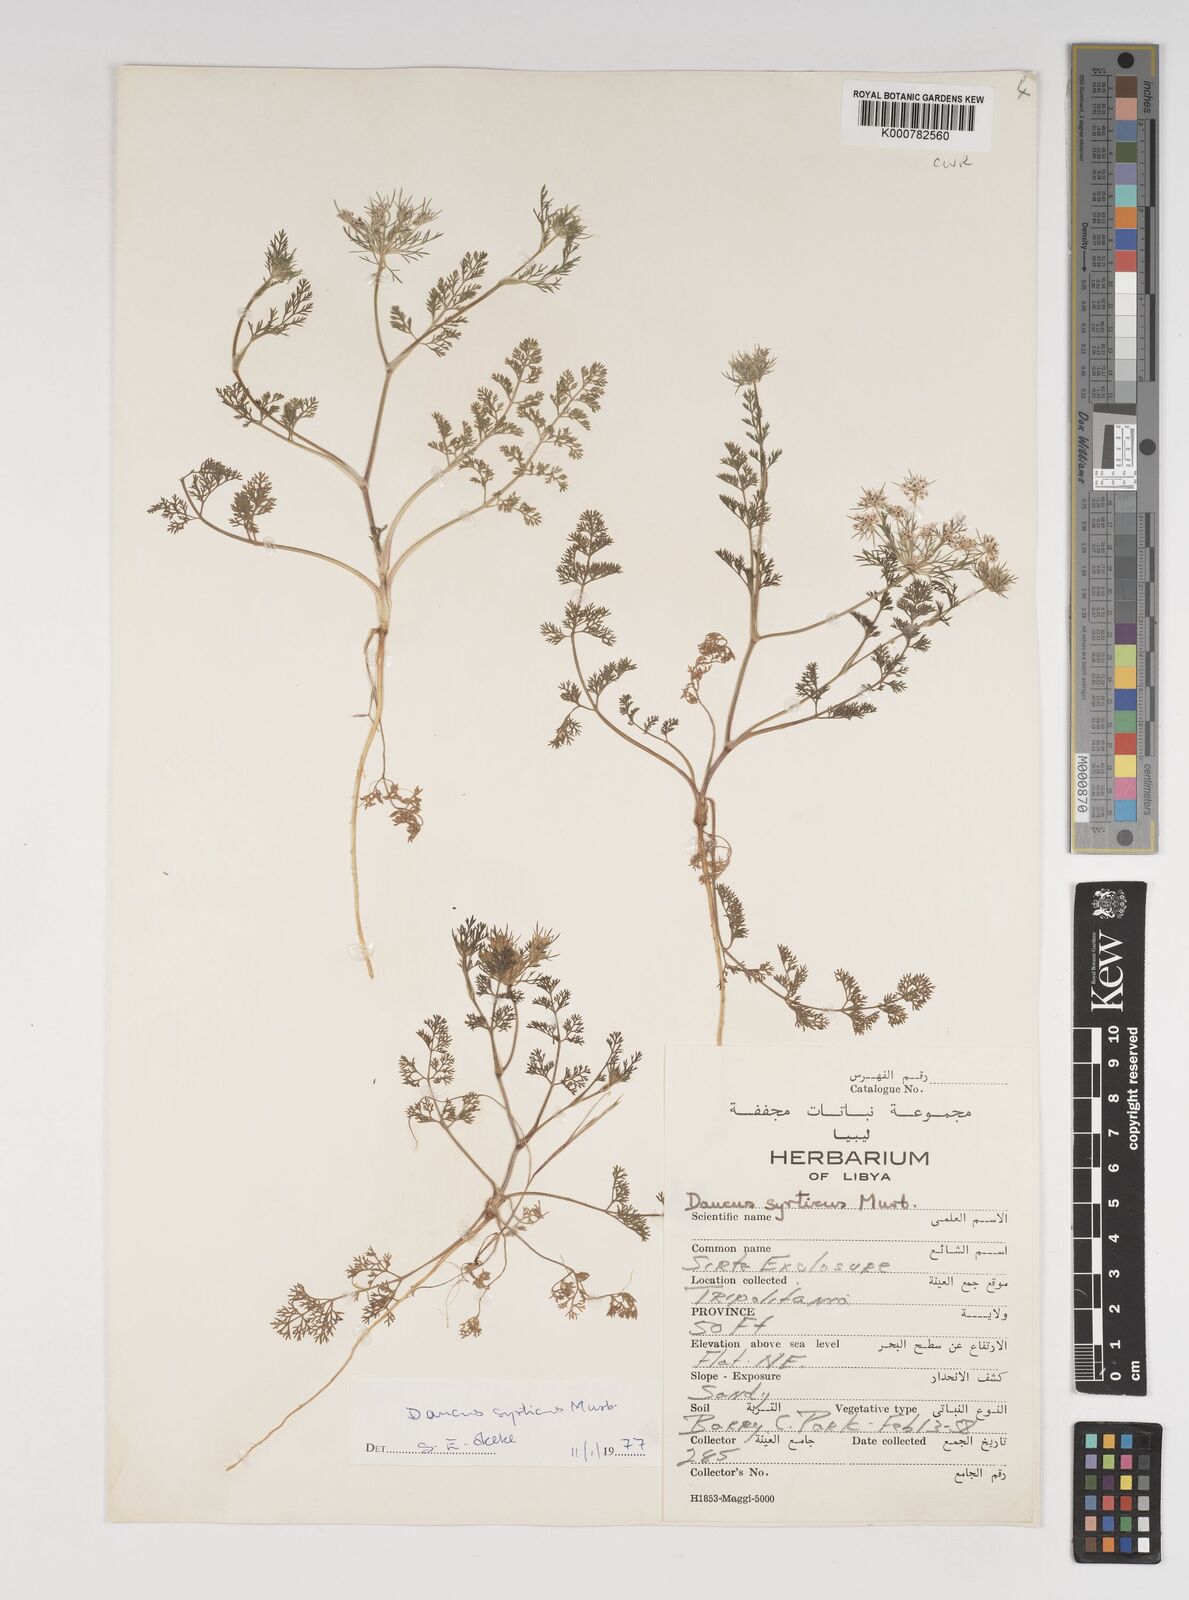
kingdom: Plantae
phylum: Tracheophyta
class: Magnoliopsida
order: Apiales
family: Apiaceae
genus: Daucus
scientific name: Daucus syrticus
